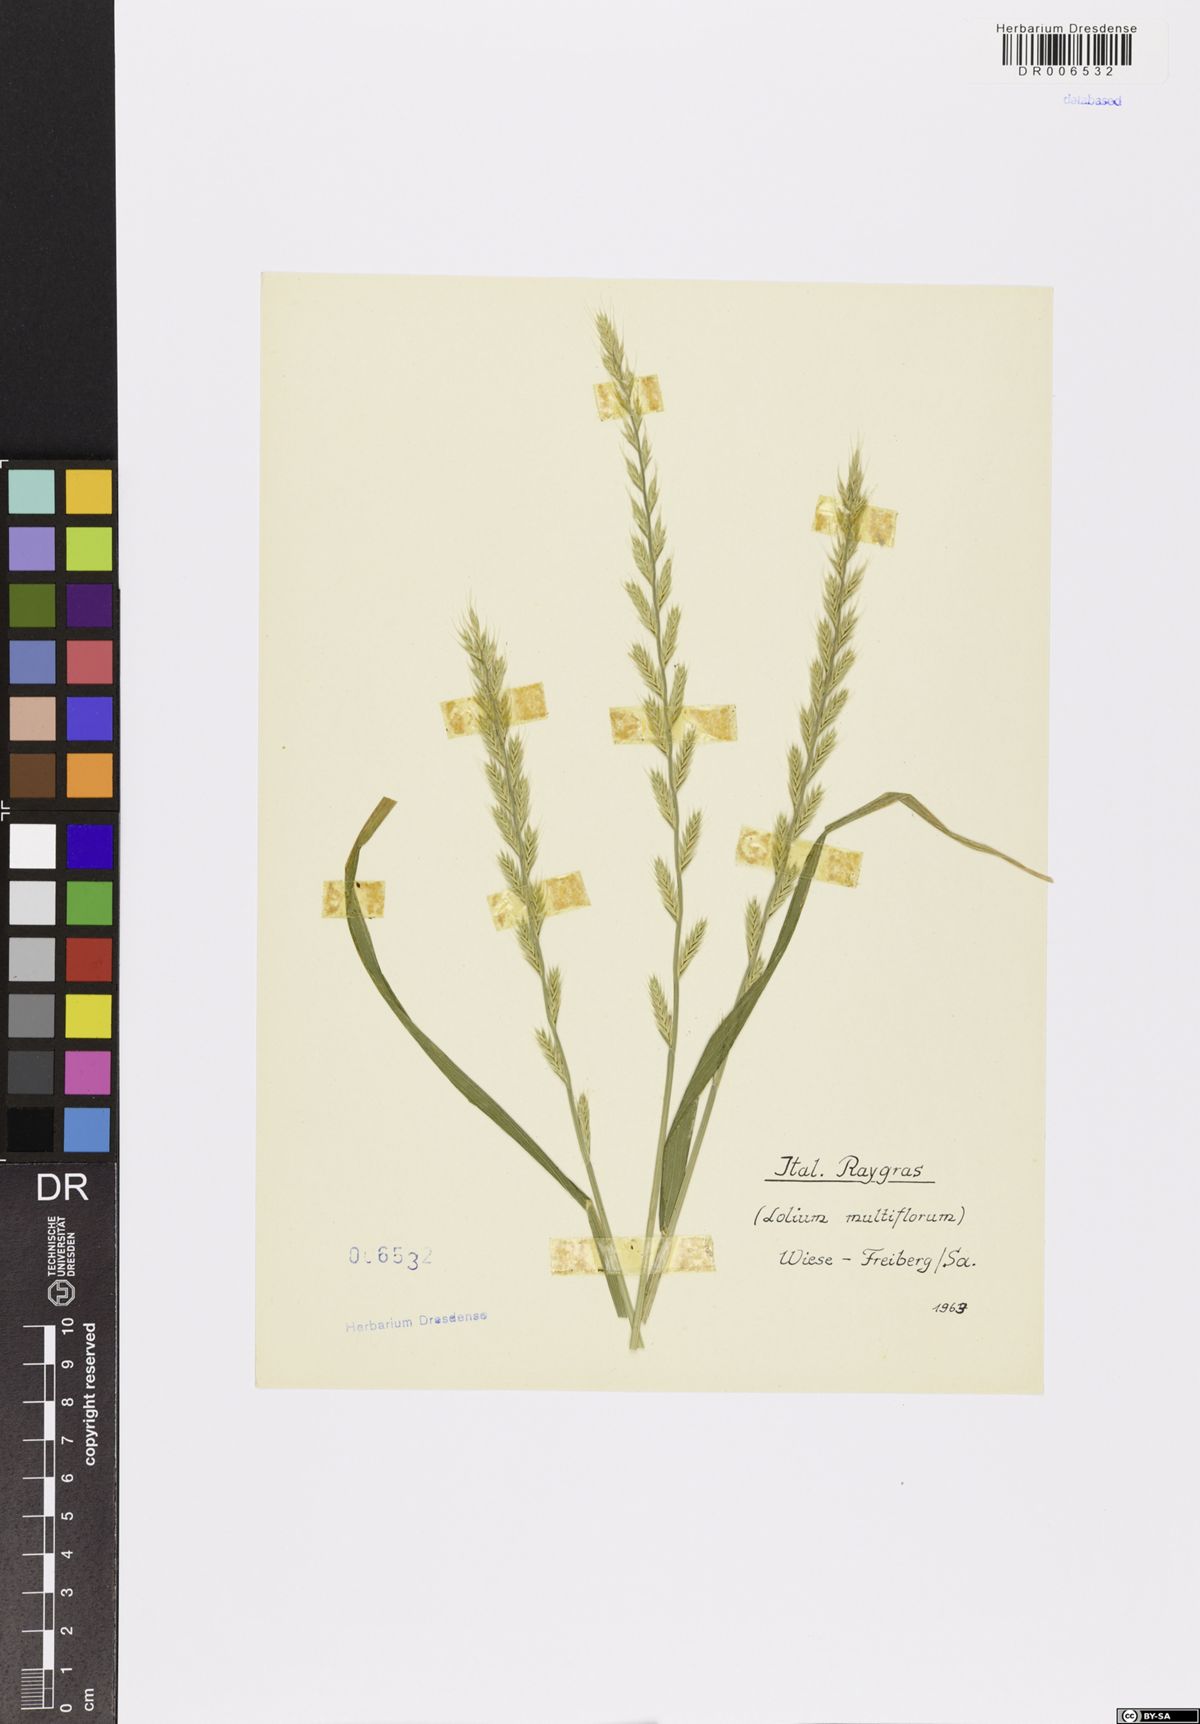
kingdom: Plantae
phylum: Tracheophyta
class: Liliopsida
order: Poales
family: Poaceae
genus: Lolium
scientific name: Lolium multiflorum
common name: Annual ryegrass
